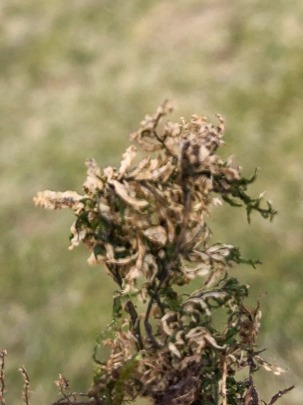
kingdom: Plantae
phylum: Bryophyta
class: Bryopsida
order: Bryales
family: Mniaceae
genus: Plagiomnium
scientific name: Plagiomnium undulatum
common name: Bølget krybstjerne
